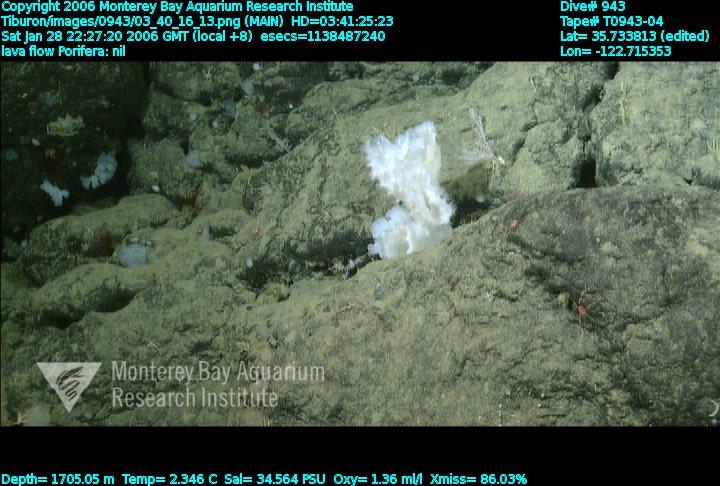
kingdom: Animalia
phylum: Porifera
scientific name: Porifera
